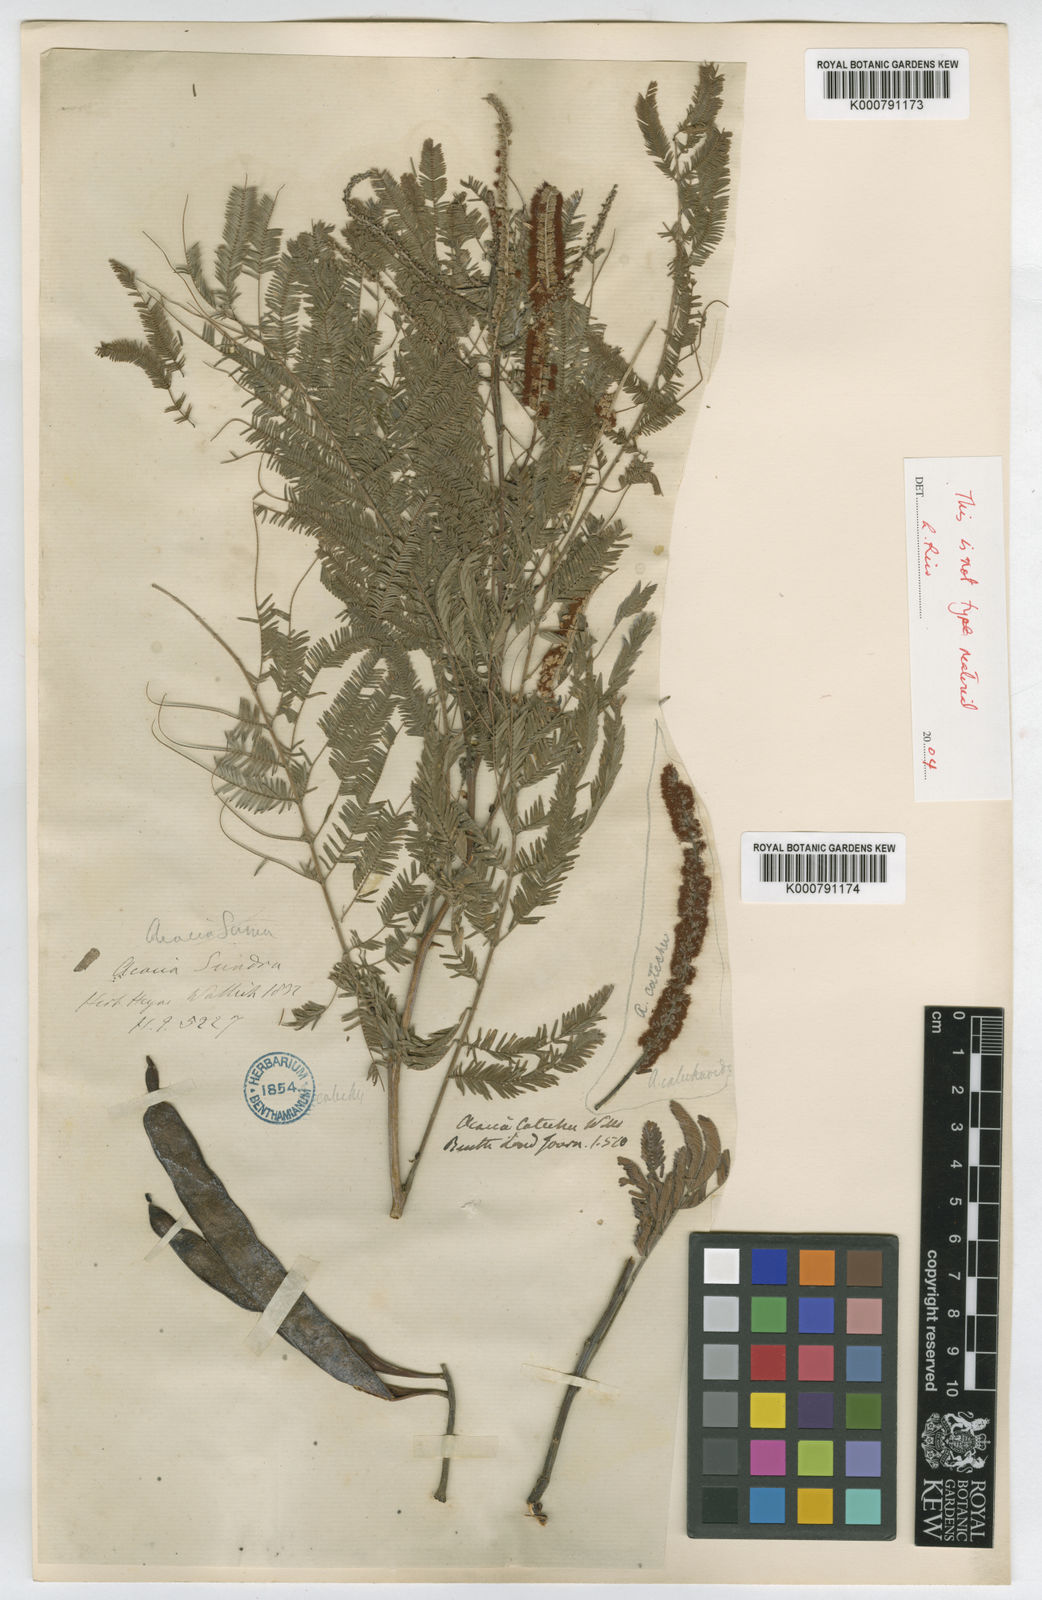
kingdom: Plantae
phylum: Tracheophyta
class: Magnoliopsida
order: Fabales
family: Fabaceae
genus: Senegalia
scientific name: Senegalia chundra
